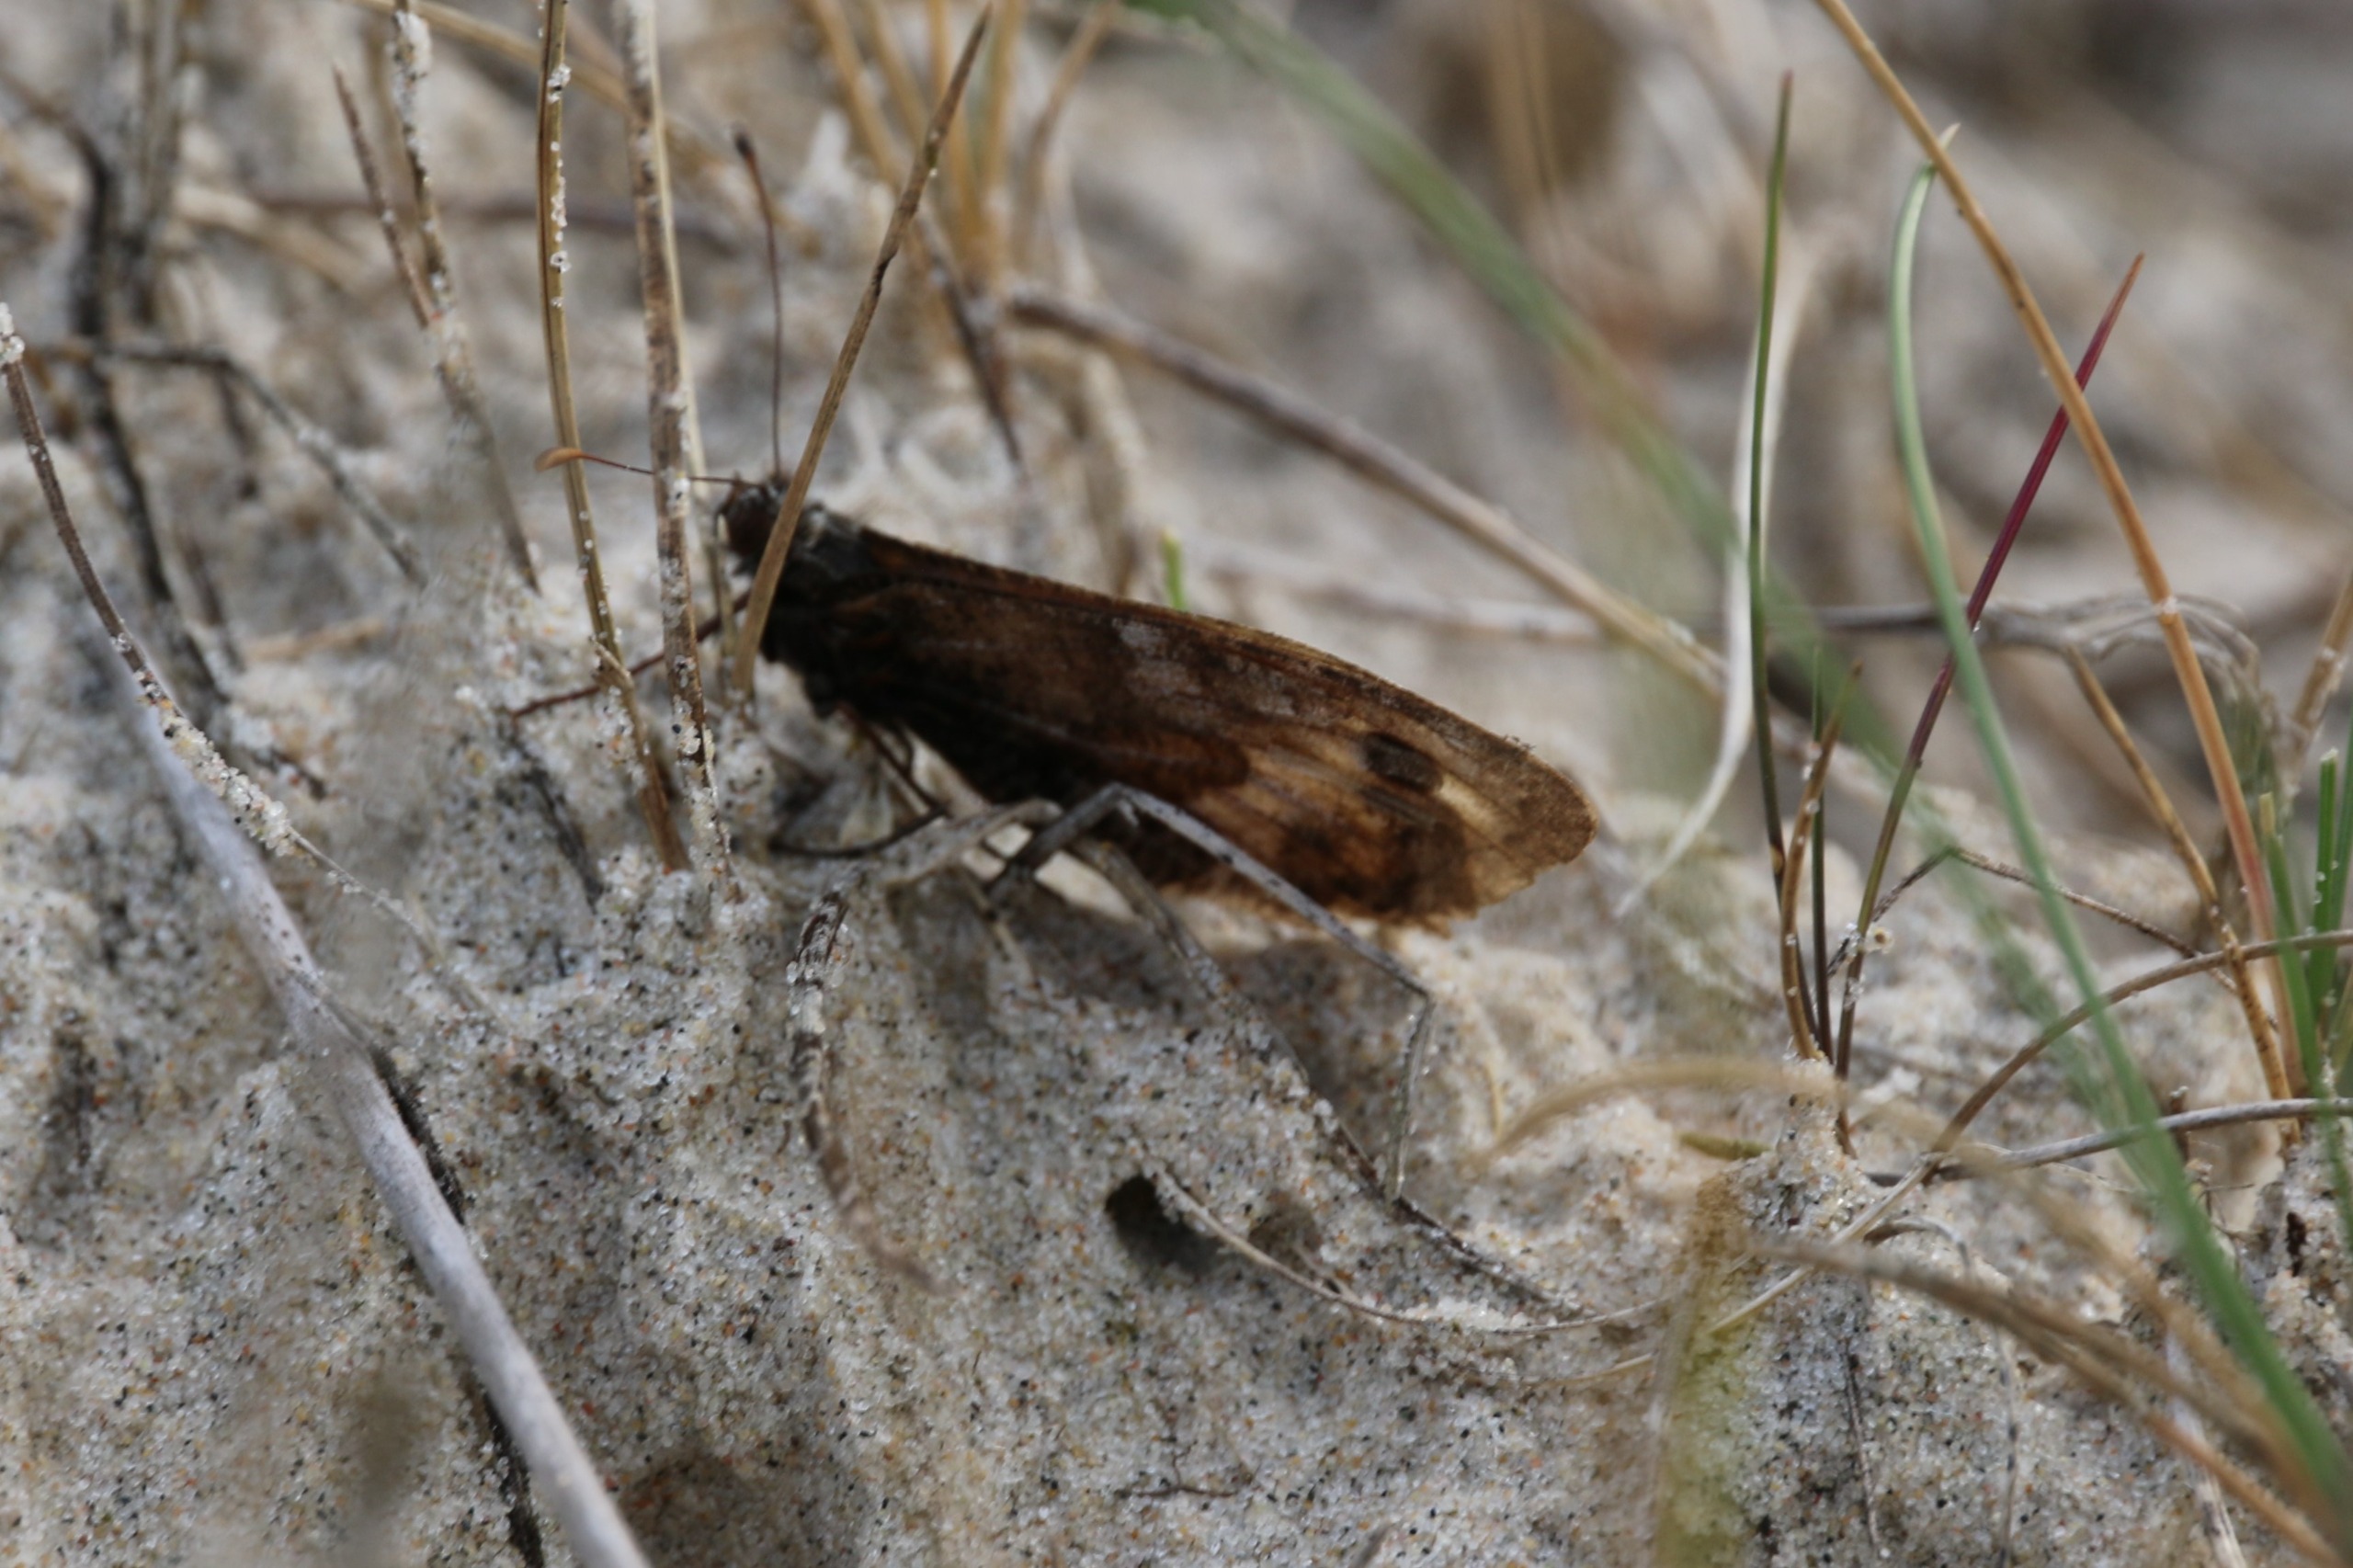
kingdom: Animalia
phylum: Arthropoda
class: Insecta
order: Lepidoptera
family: Nymphalidae
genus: Hipparchia
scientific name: Hipparchia semele
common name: Sandrandøje
